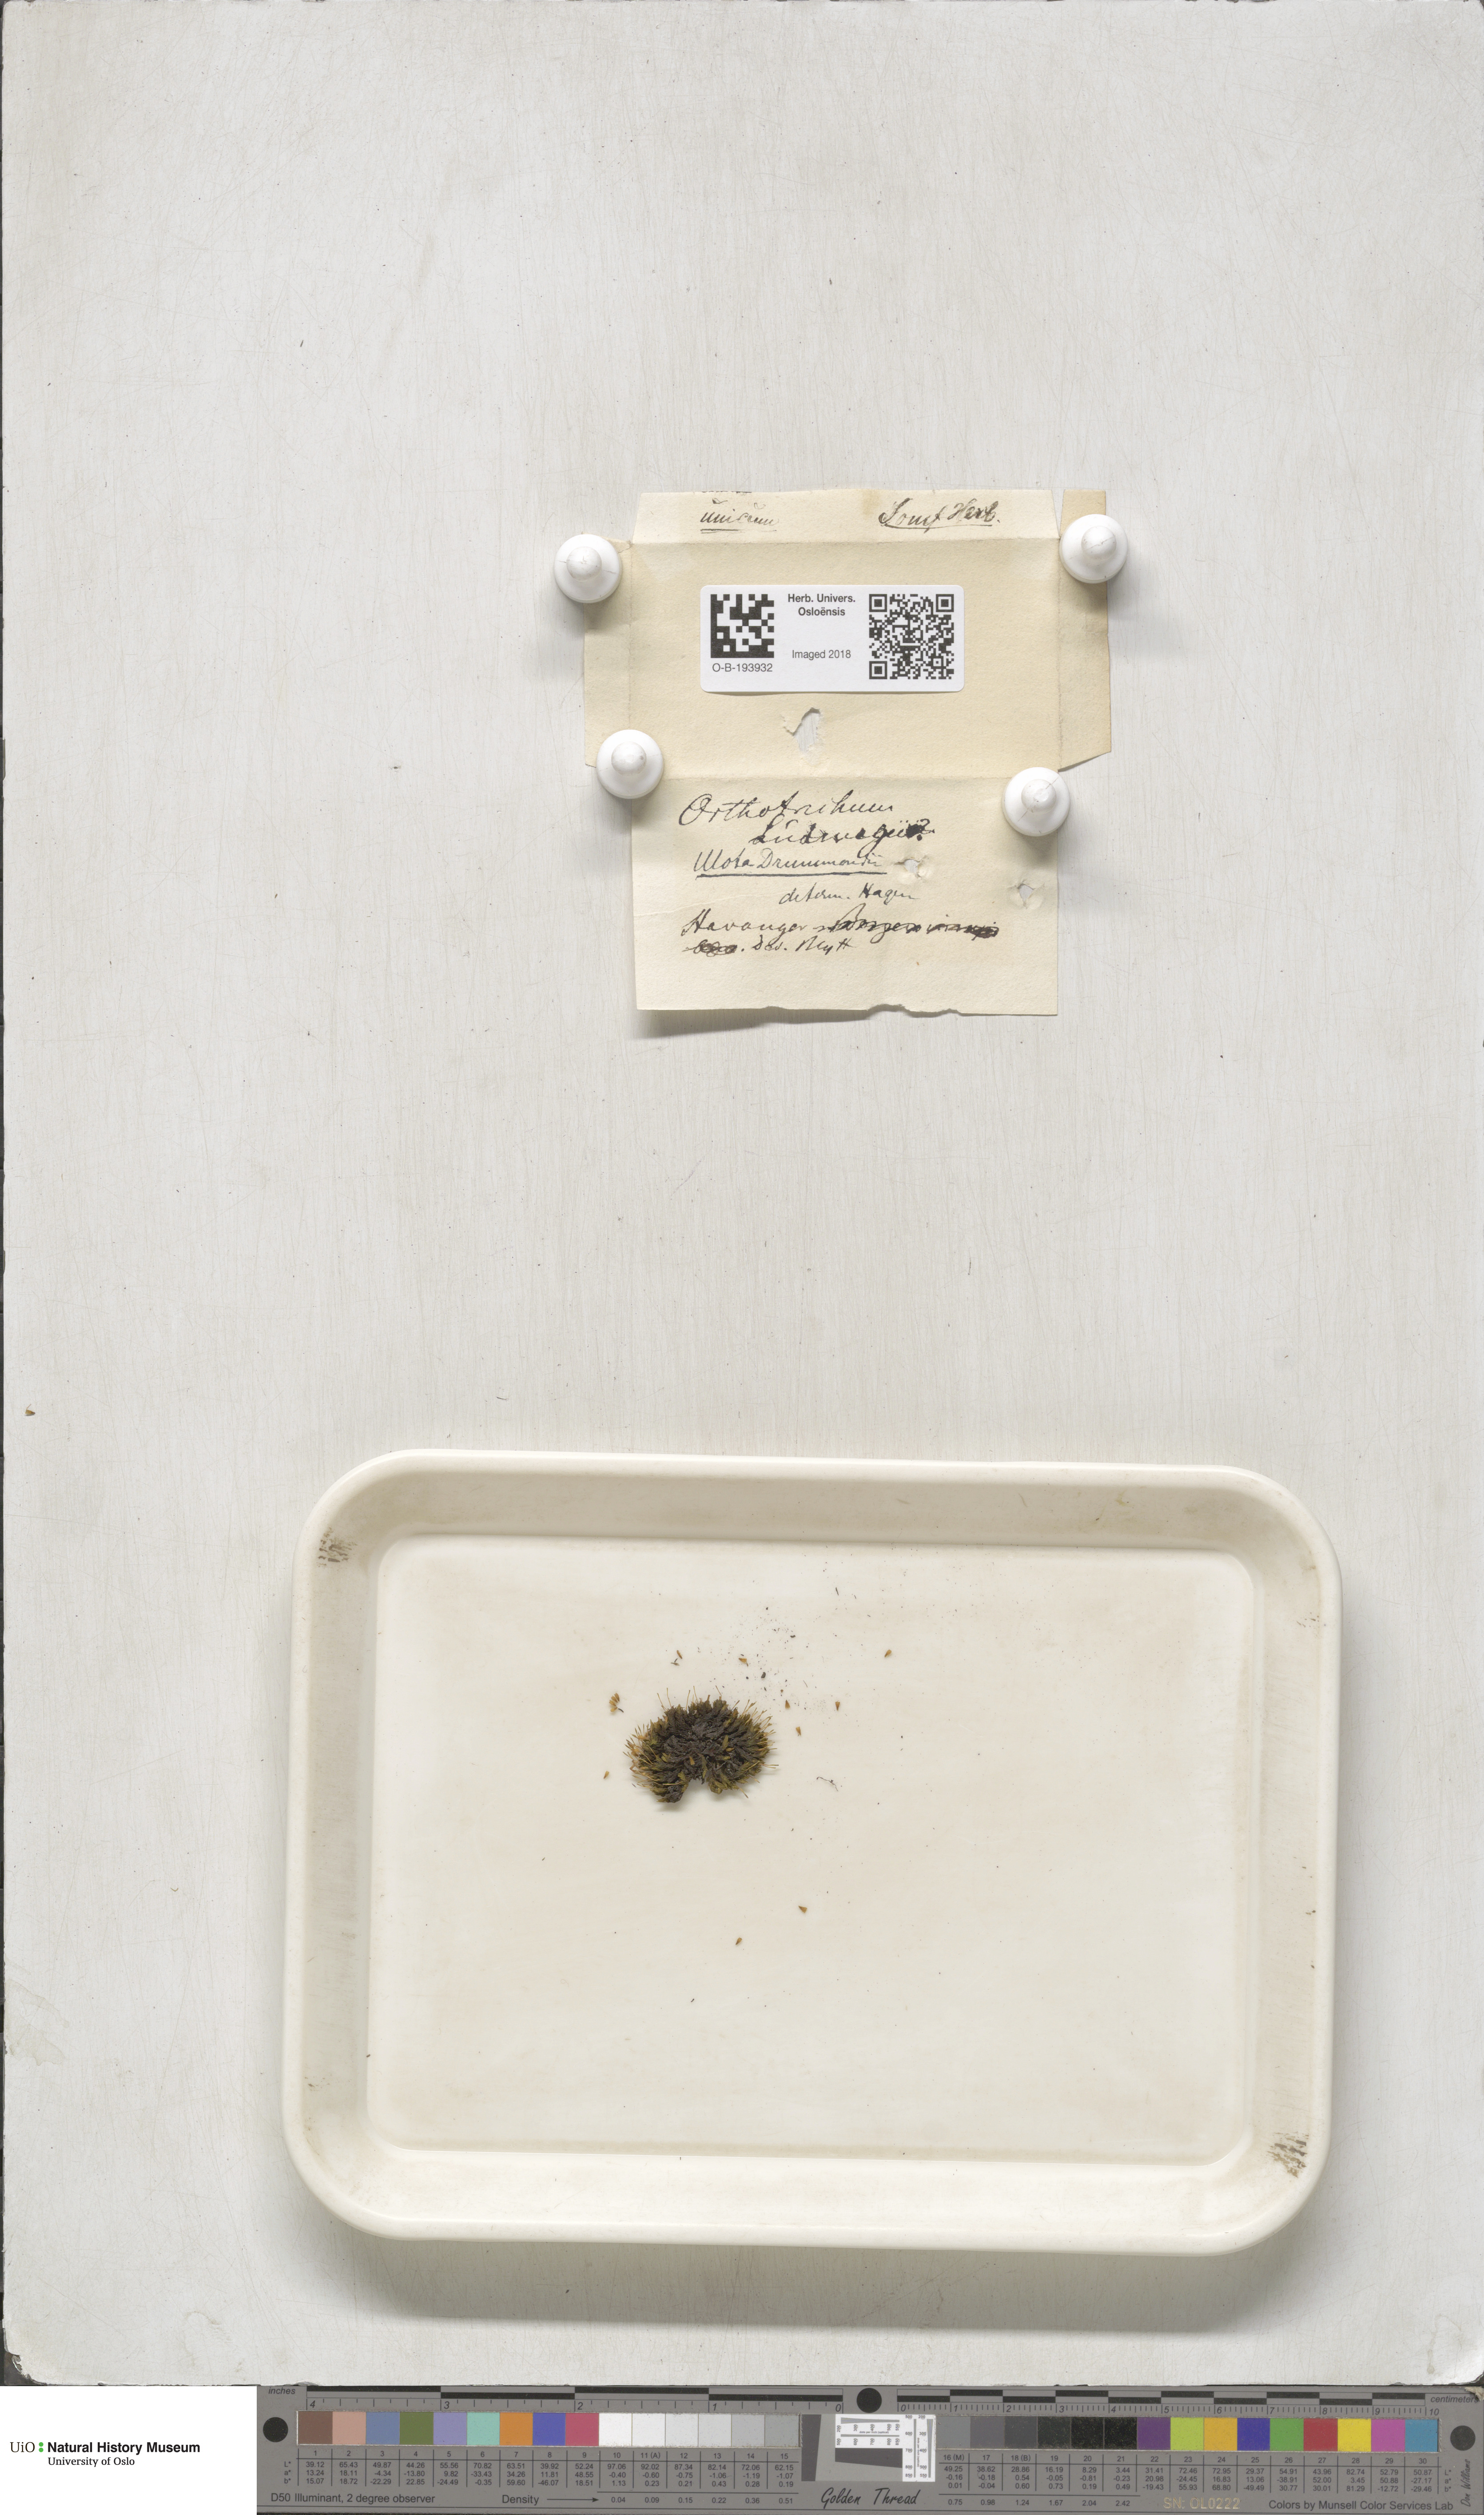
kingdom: Plantae
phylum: Bryophyta
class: Bryopsida
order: Orthotrichales
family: Orthotrichaceae
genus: Ulota
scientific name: Ulota drummondii
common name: Drummond's pincushion moss
